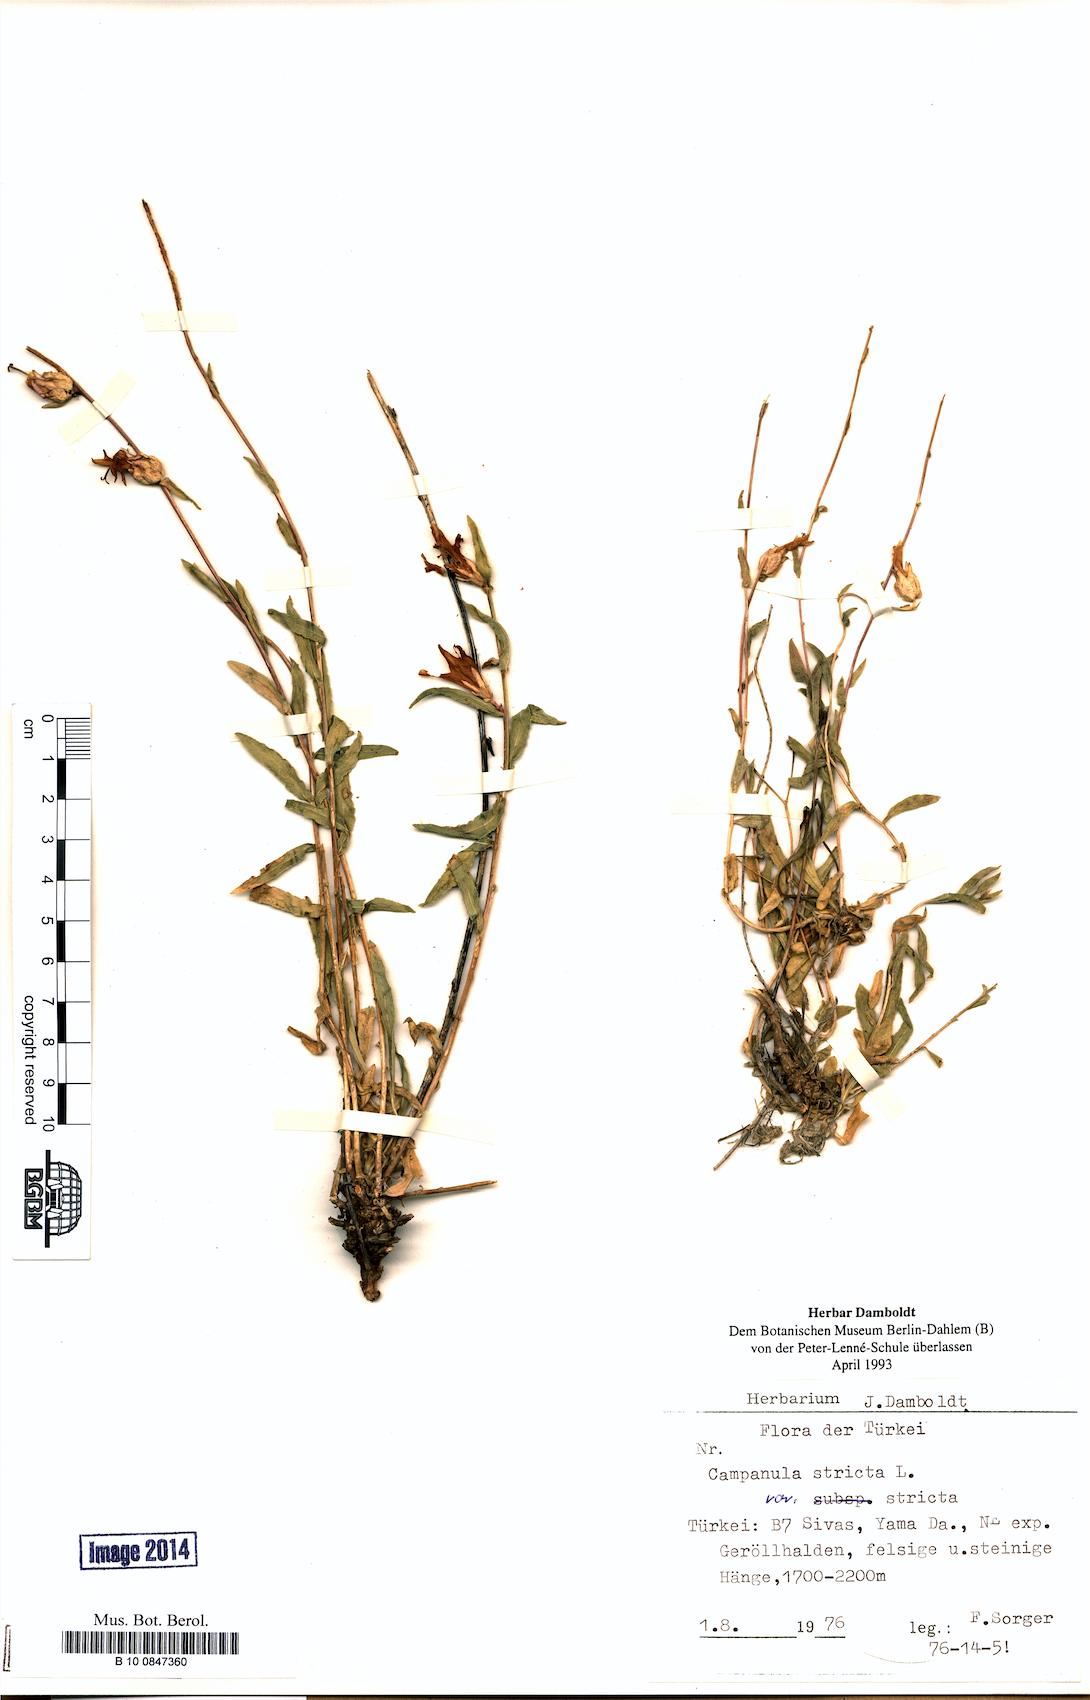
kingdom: Plantae
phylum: Tracheophyta
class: Magnoliopsida
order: Asterales
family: Campanulaceae
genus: Campanula
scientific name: Campanula stricta
